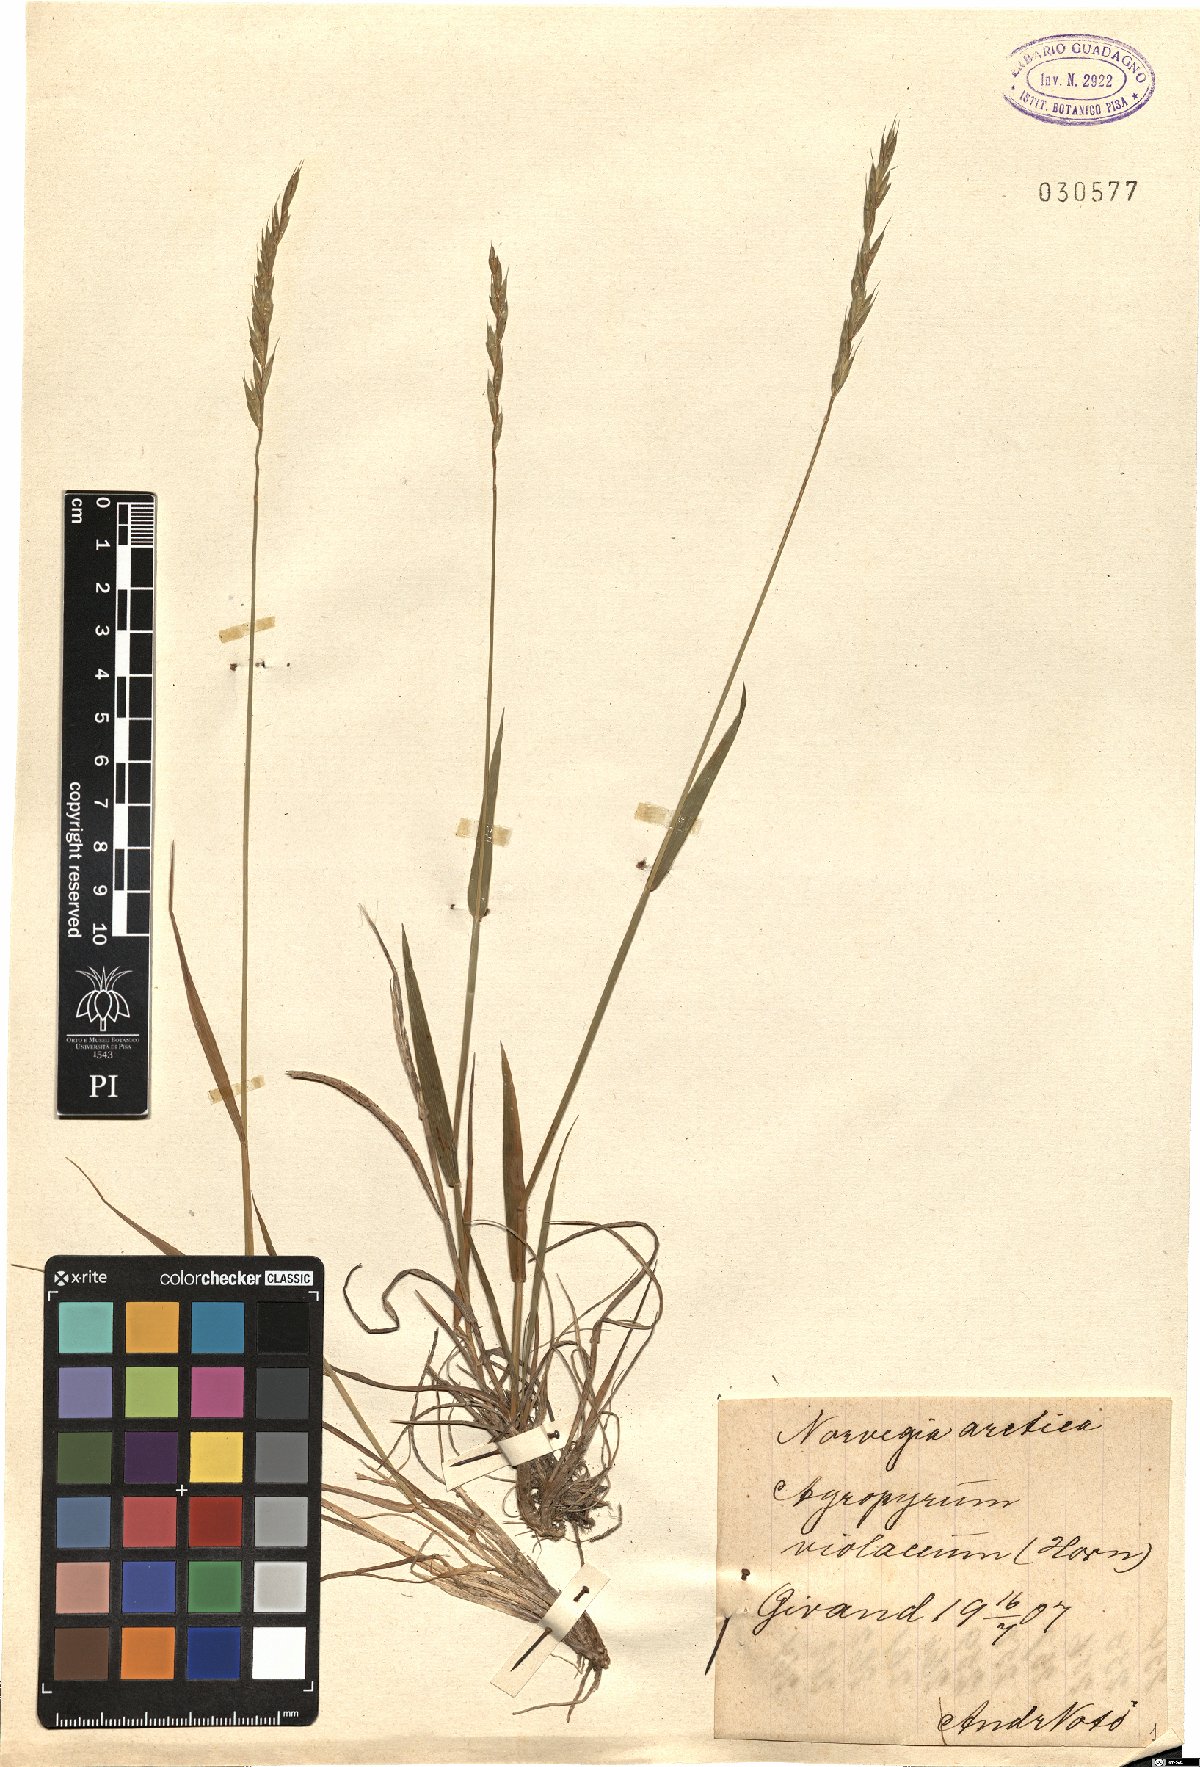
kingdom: Plantae
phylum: Tracheophyta
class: Liliopsida
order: Poales
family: Poaceae
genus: Elymus
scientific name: Elymus violaceus
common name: Arctic wheatgrass
